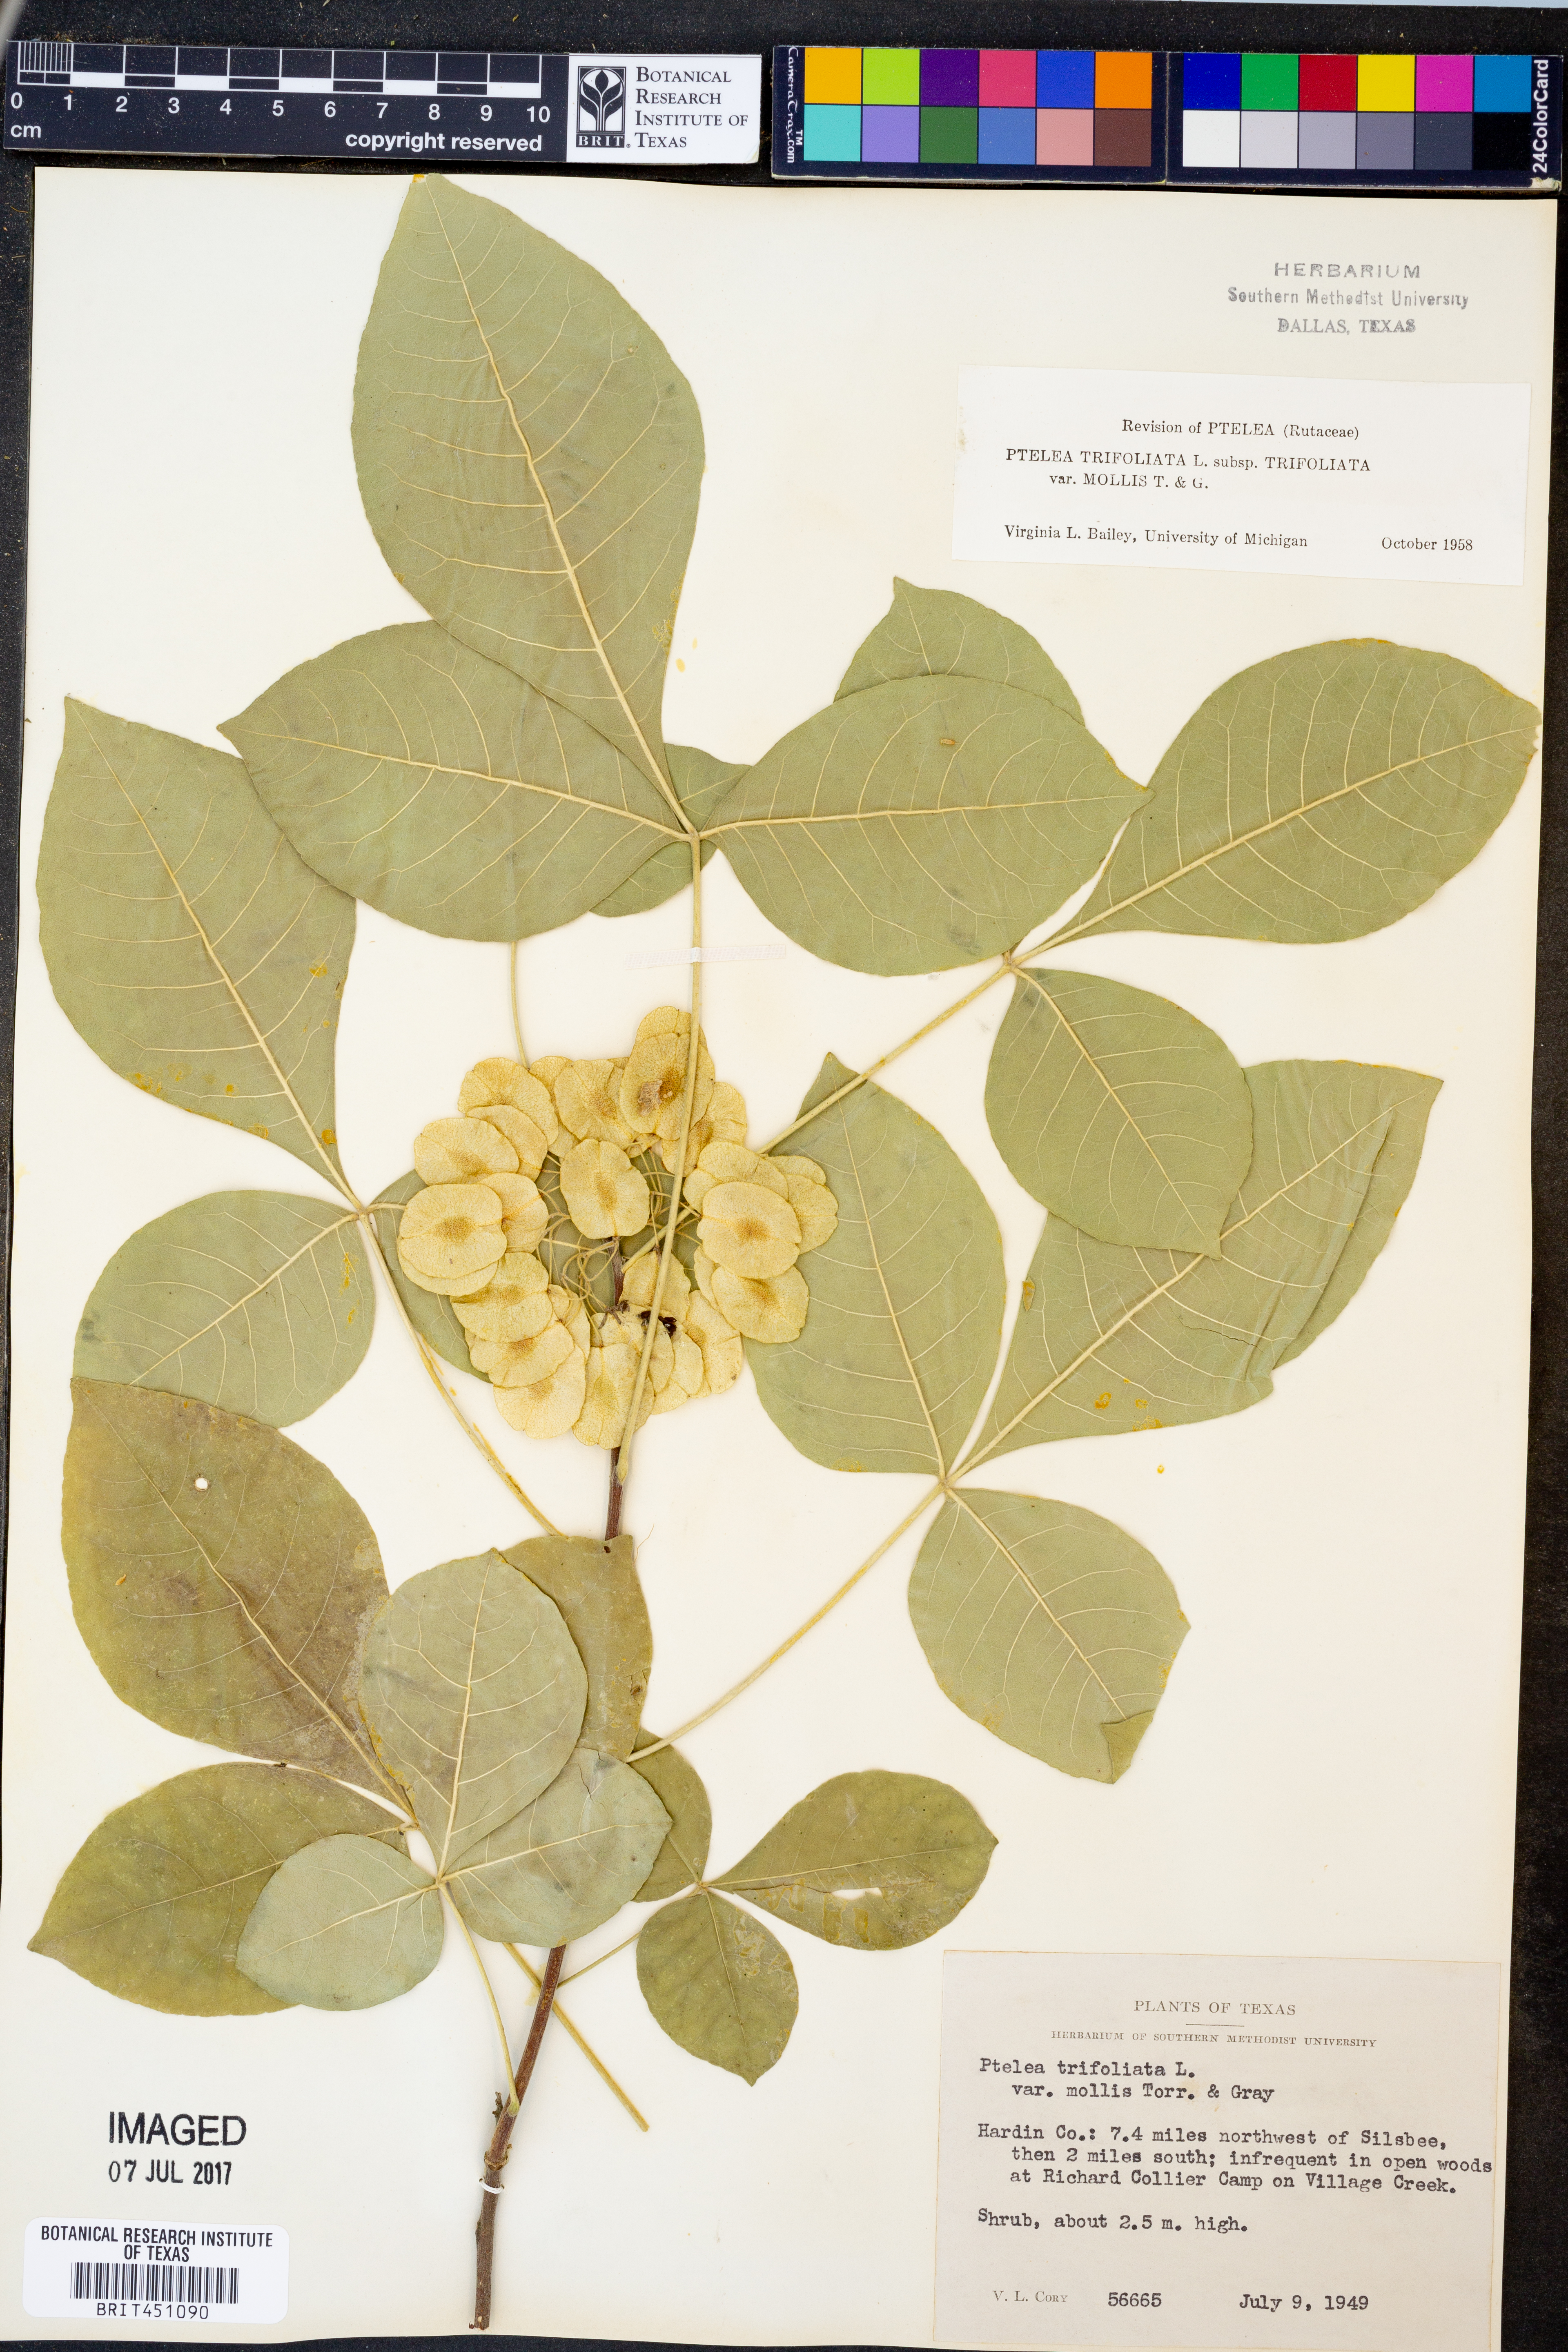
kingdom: Plantae
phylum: Tracheophyta
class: Magnoliopsida
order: Sapindales
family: Rutaceae
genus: Ptelea
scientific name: Ptelea trifoliata
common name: Common hop-tree
